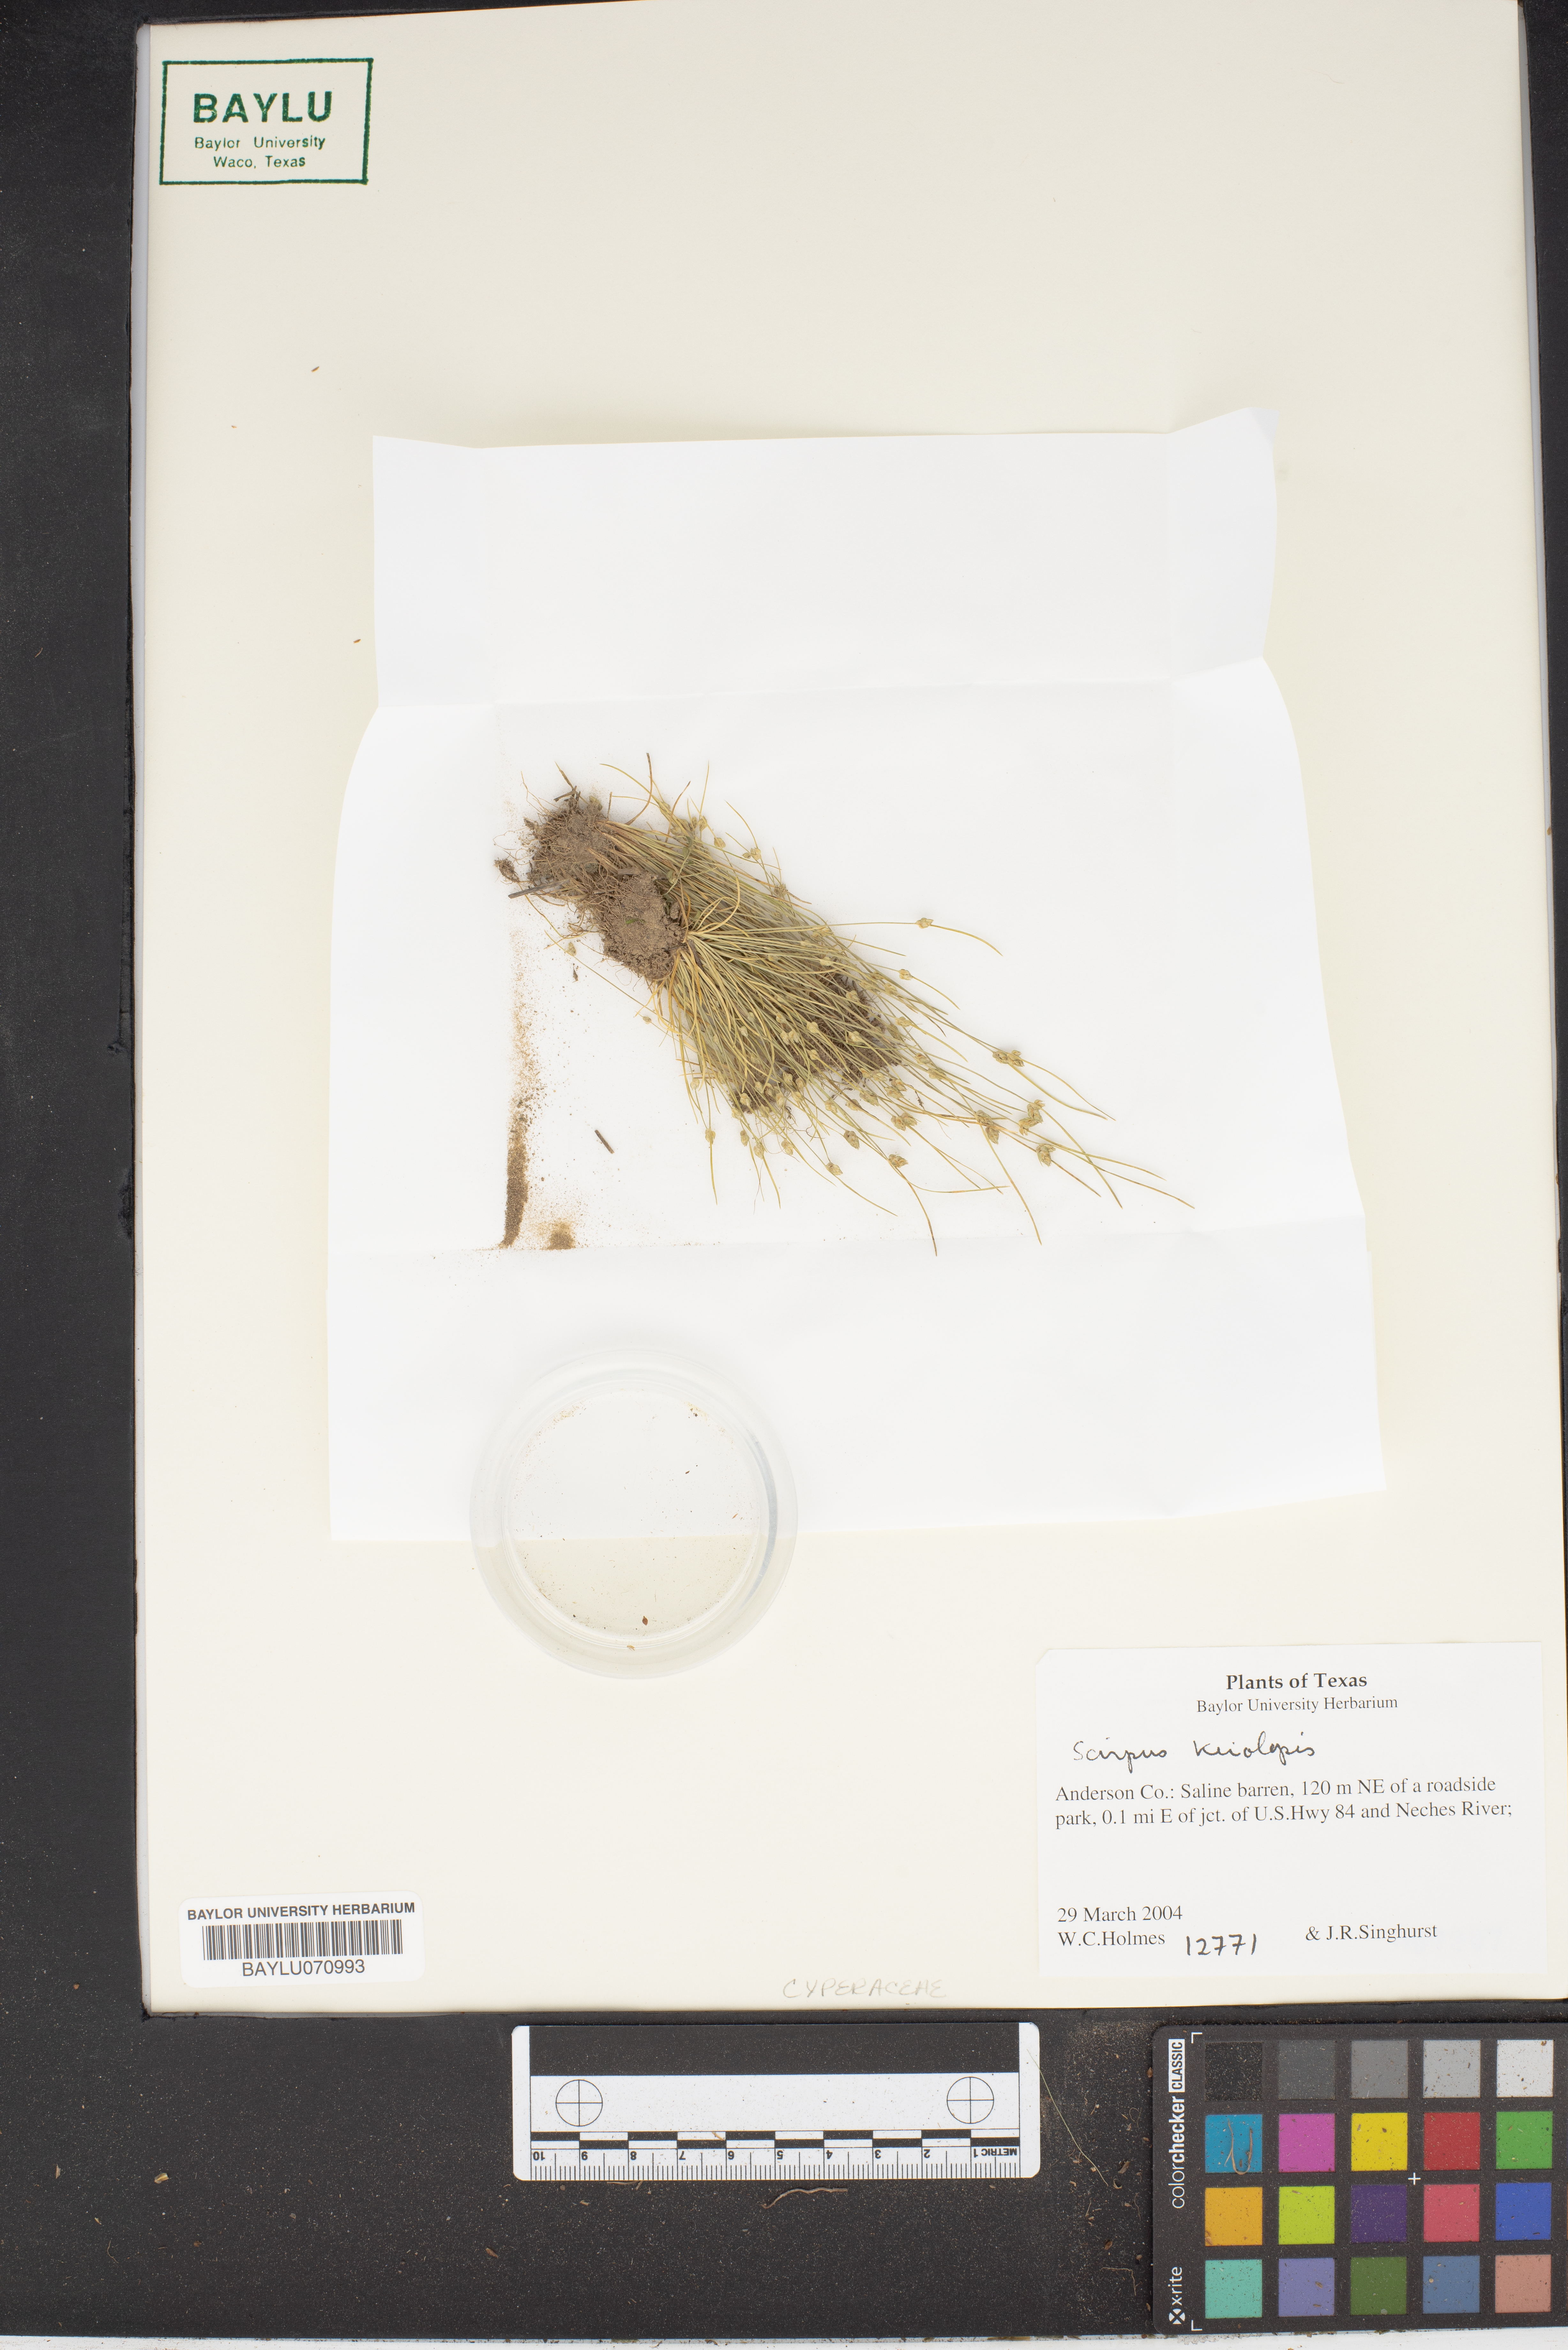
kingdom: Plantae
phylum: Tracheophyta
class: Liliopsida
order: Poales
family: Cyperaceae
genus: Isolepis
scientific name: Isolepis carinata
